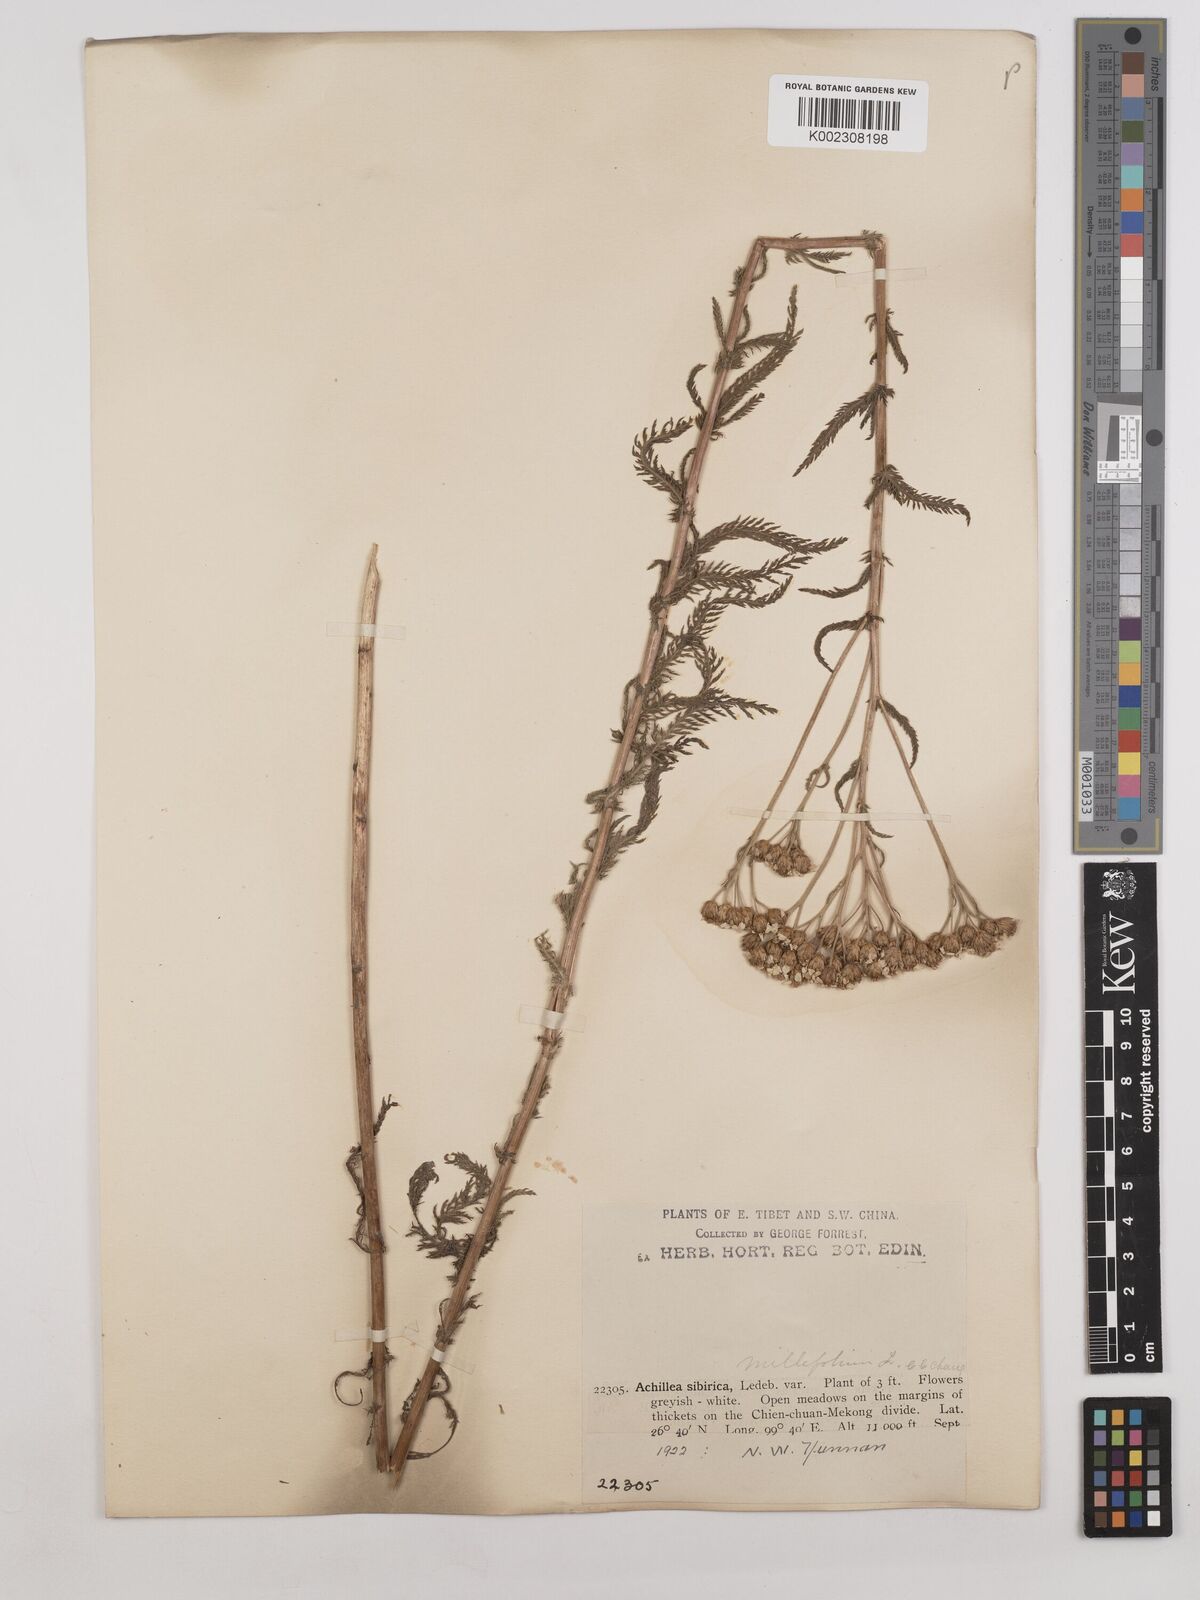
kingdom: Plantae
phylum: Tracheophyta
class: Magnoliopsida
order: Asterales
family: Asteraceae
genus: Achillea
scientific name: Achillea alpina
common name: Siberian yarrow
